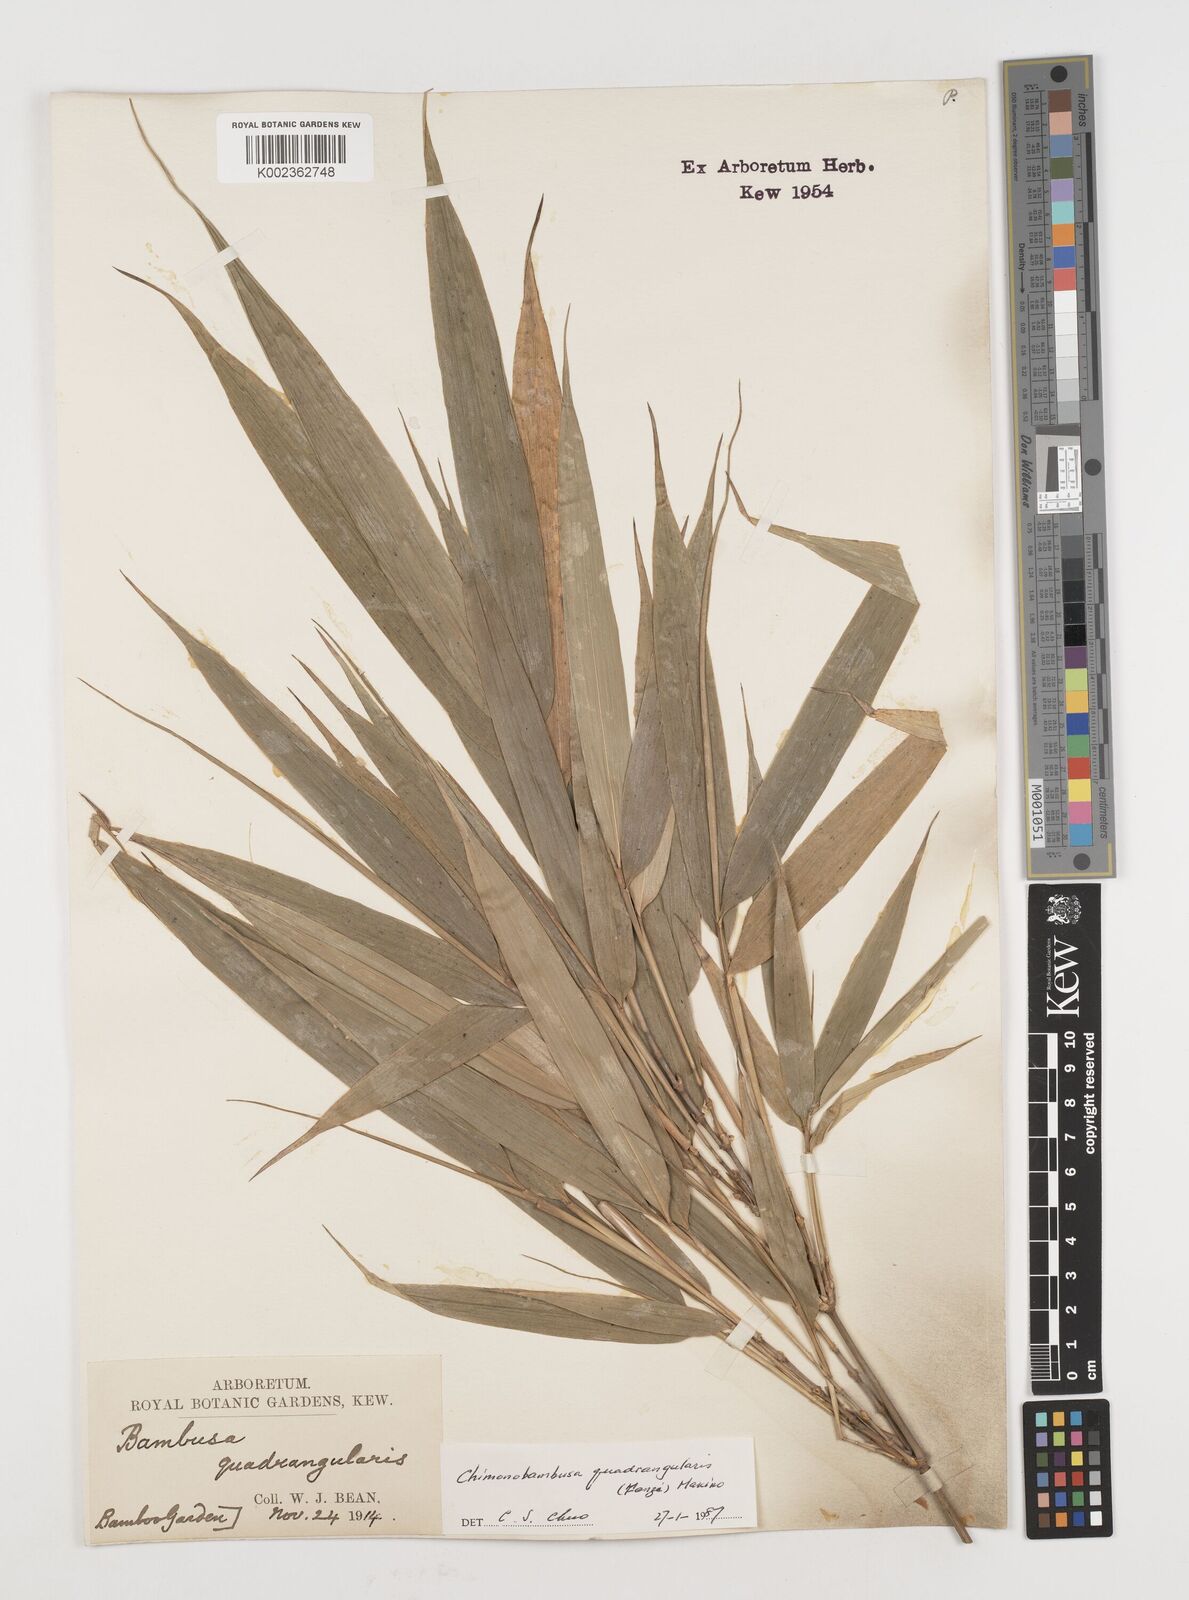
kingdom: Plantae
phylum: Tracheophyta
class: Liliopsida
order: Poales
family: Poaceae
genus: Chimonobambusa
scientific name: Chimonobambusa quadrangularis
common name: Square-stemmed bamboo
